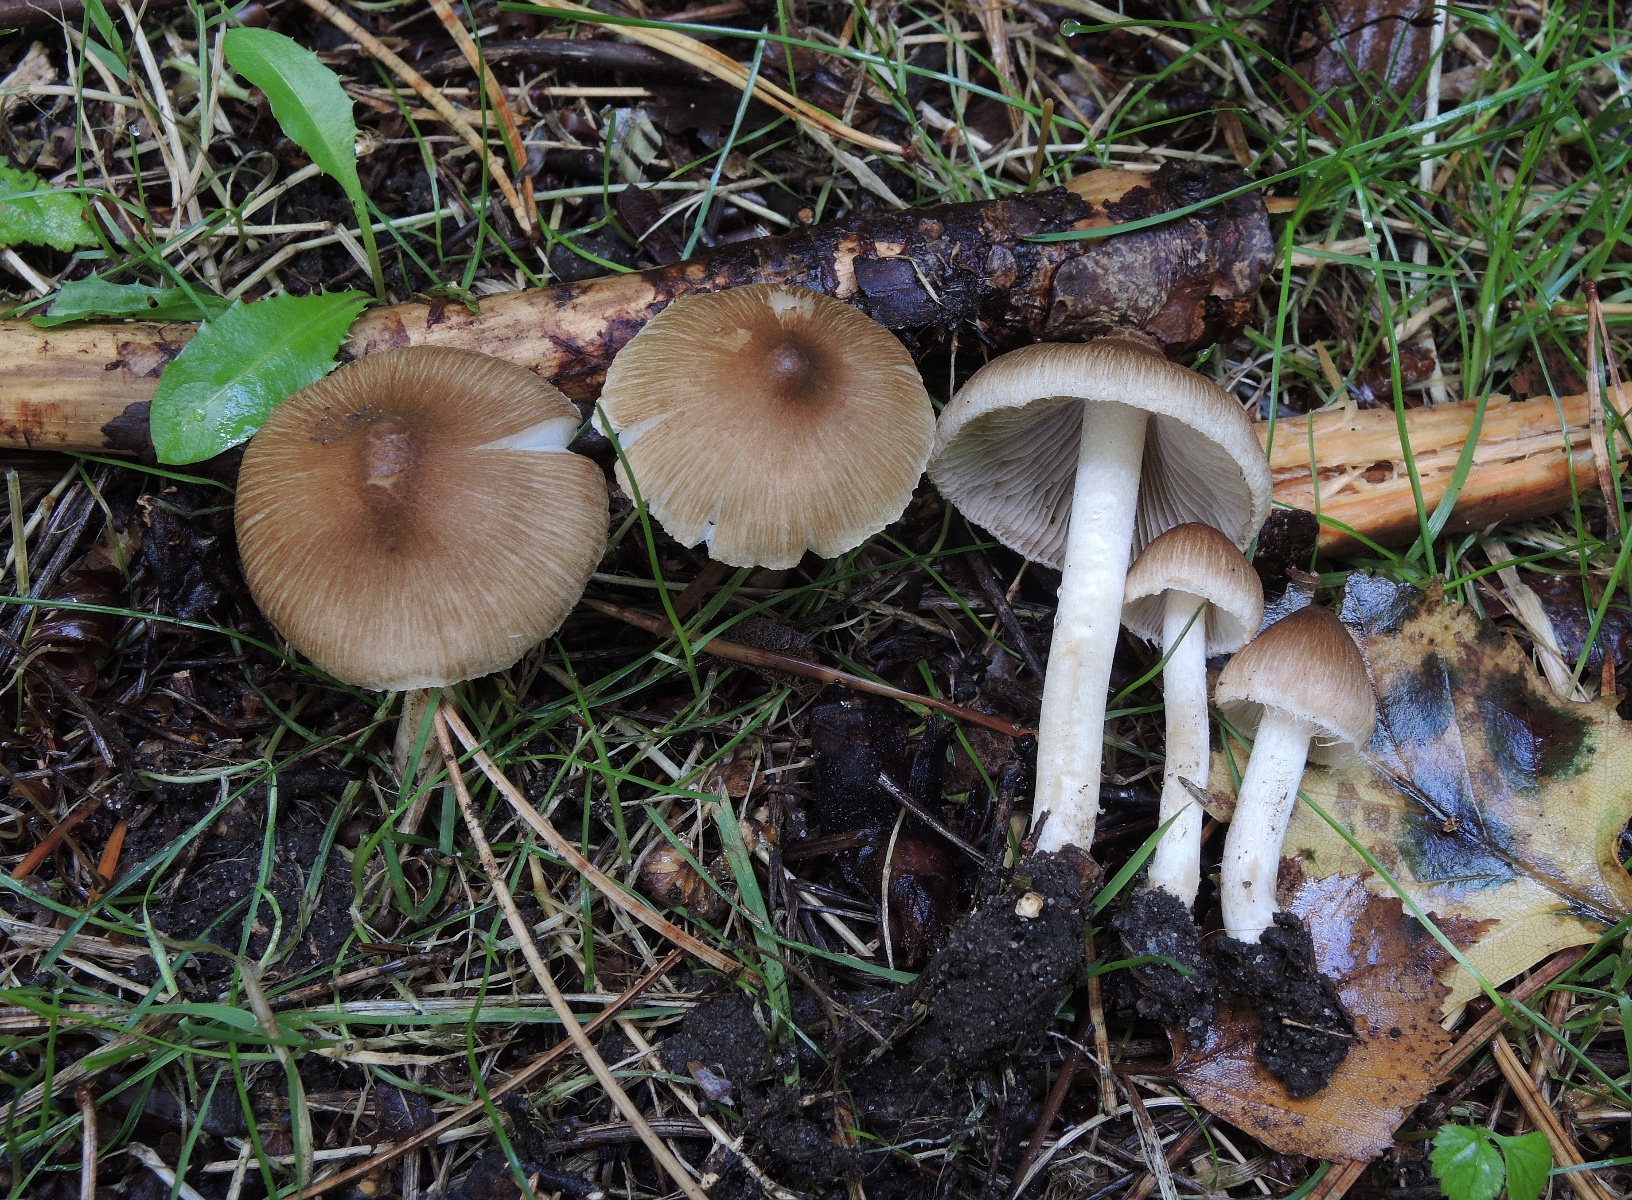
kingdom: Fungi
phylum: Basidiomycota
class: Agaricomycetes
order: Agaricales
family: Inocybaceae
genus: Inocybe
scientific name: Inocybe
